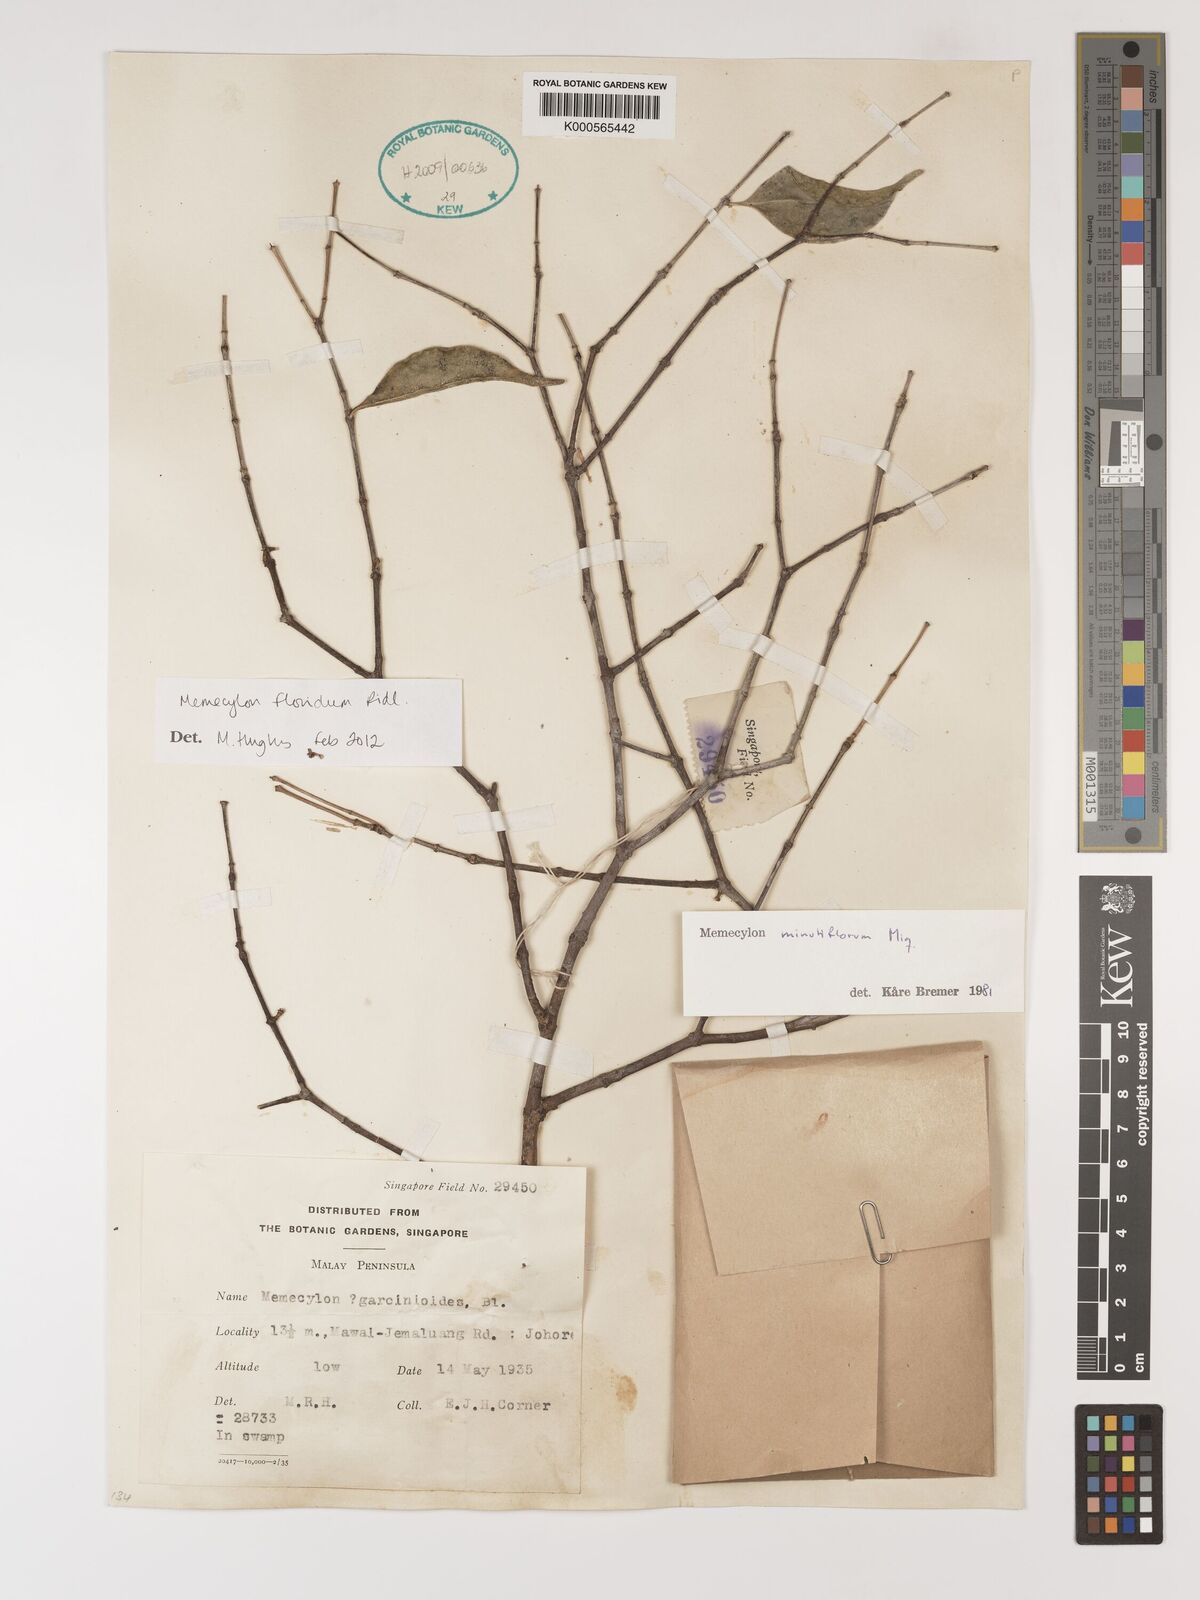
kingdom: Plantae
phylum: Tracheophyta
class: Magnoliopsida
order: Myrtales
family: Melastomataceae
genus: Memecylon
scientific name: Memecylon floridum
